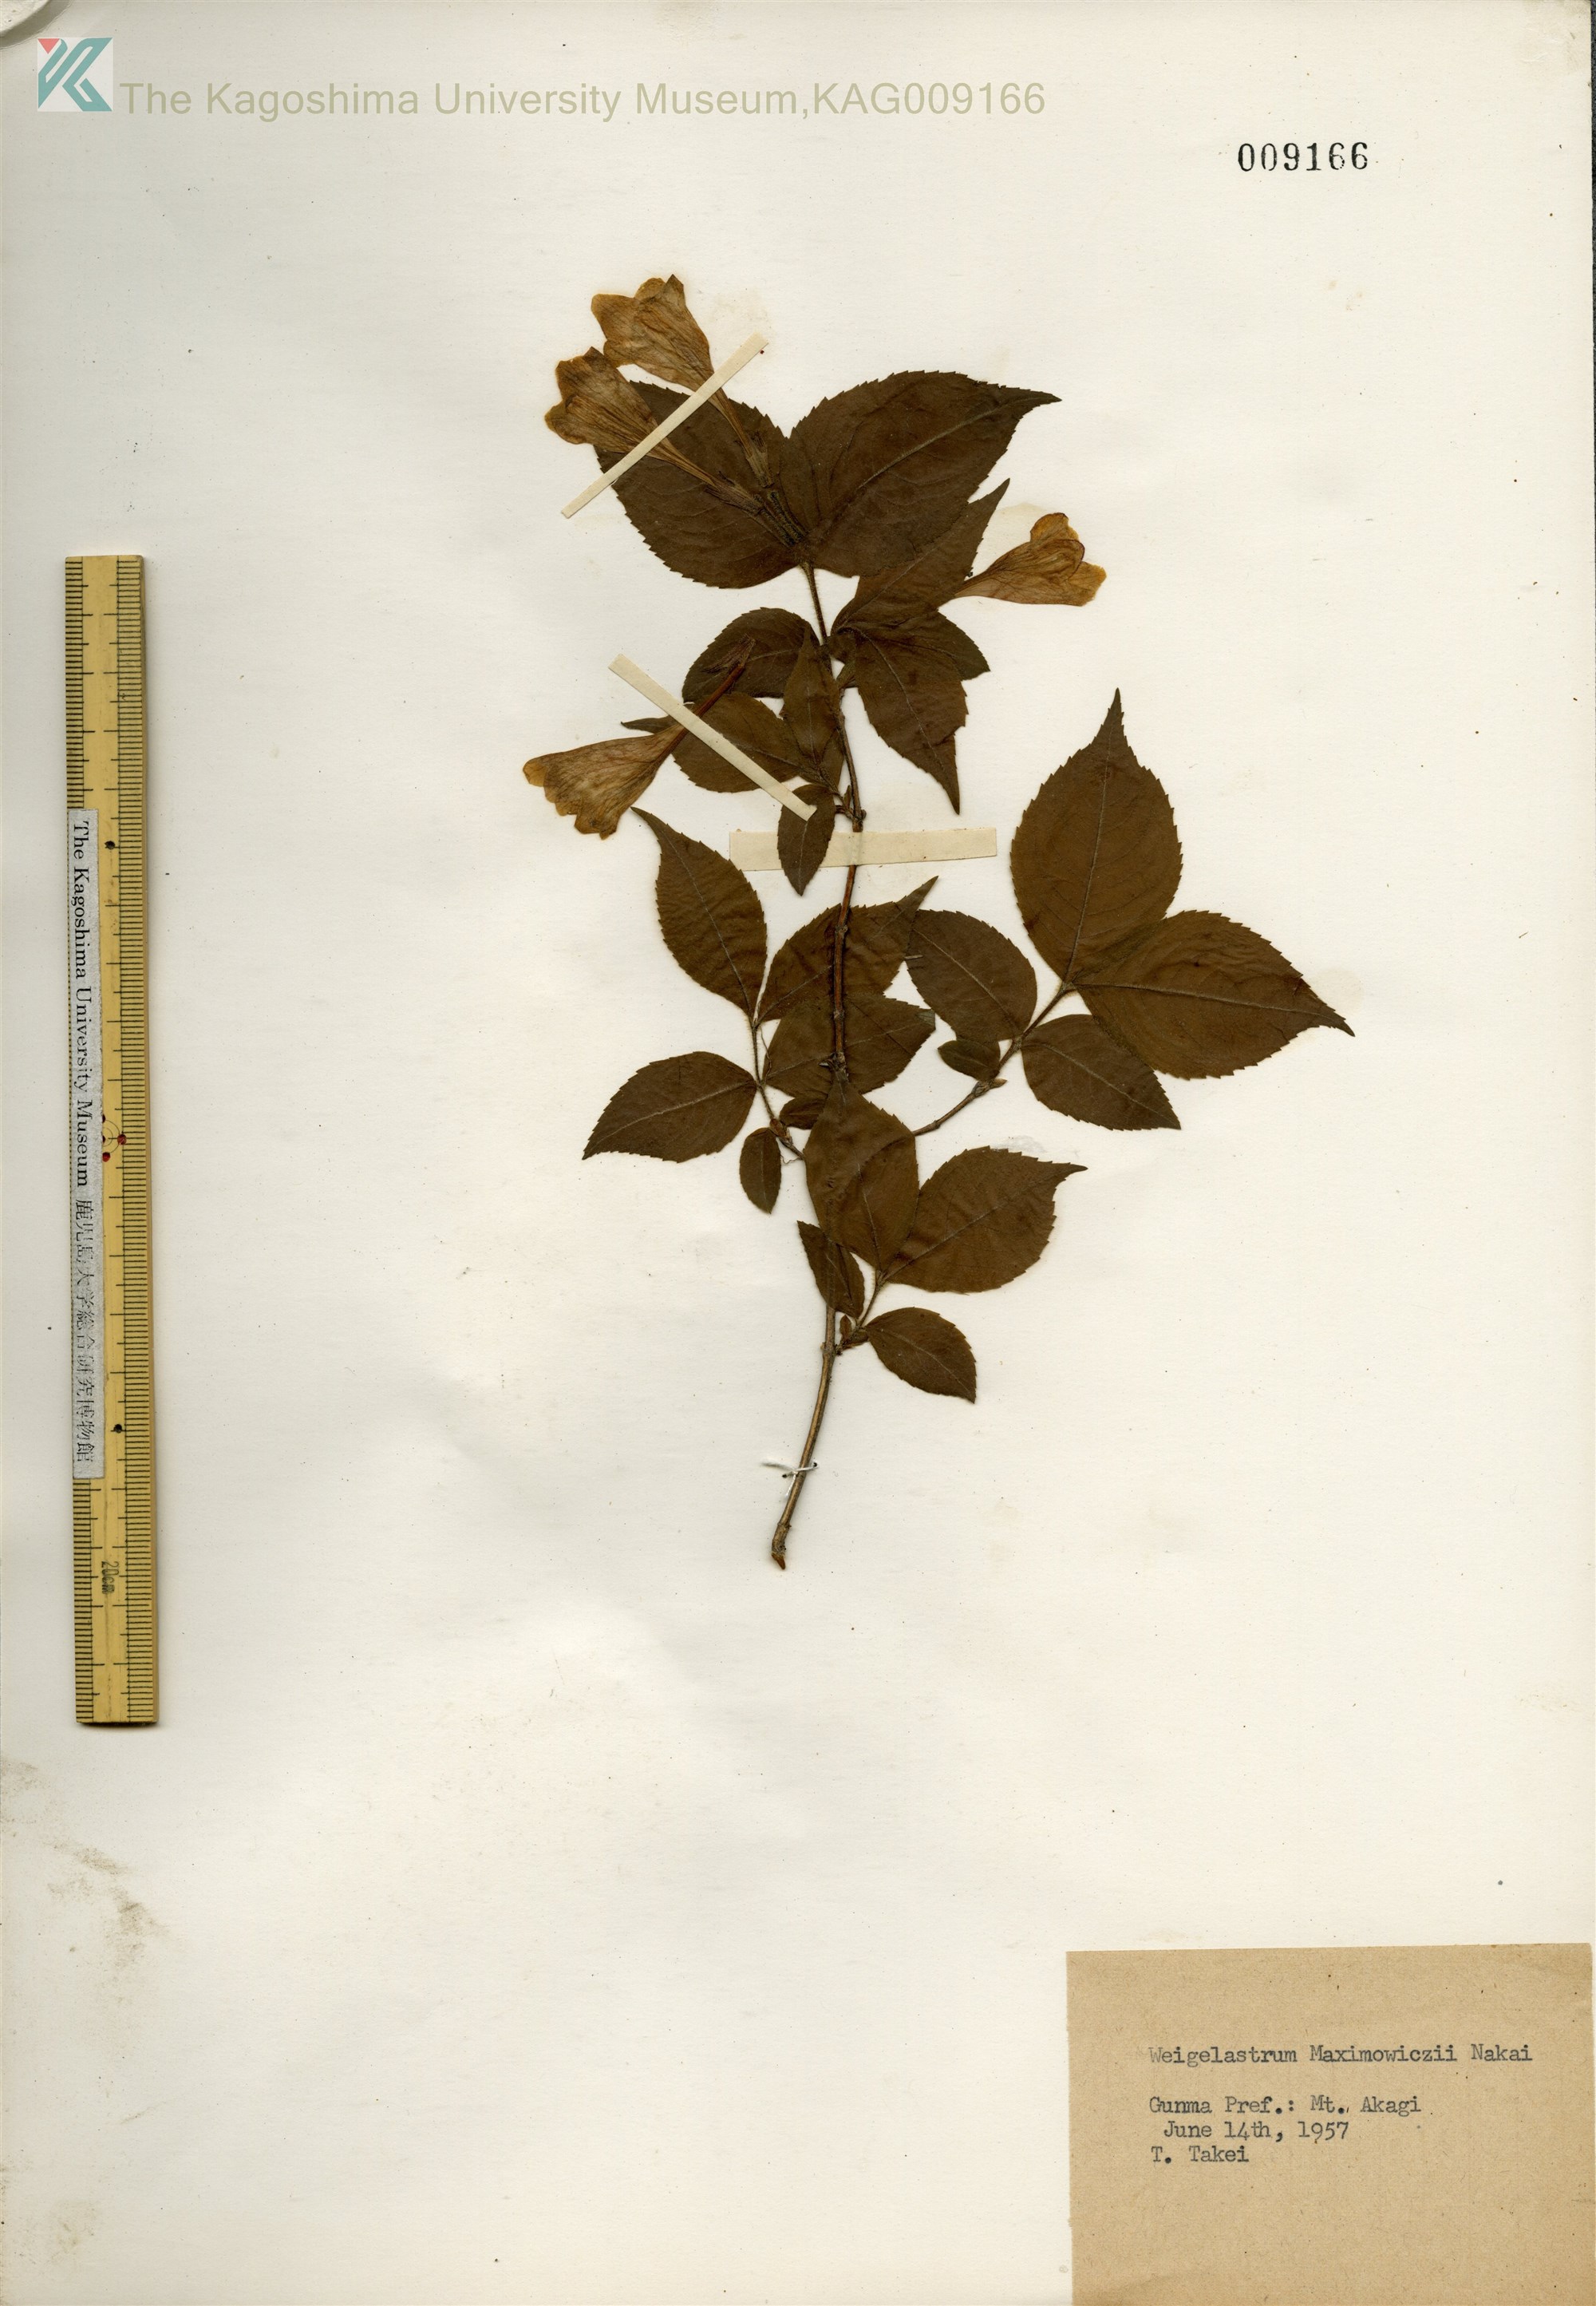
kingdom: Plantae
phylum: Tracheophyta
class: Magnoliopsida
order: Dipsacales
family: Caprifoliaceae
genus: Weigela
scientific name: Weigela maximowiczii
